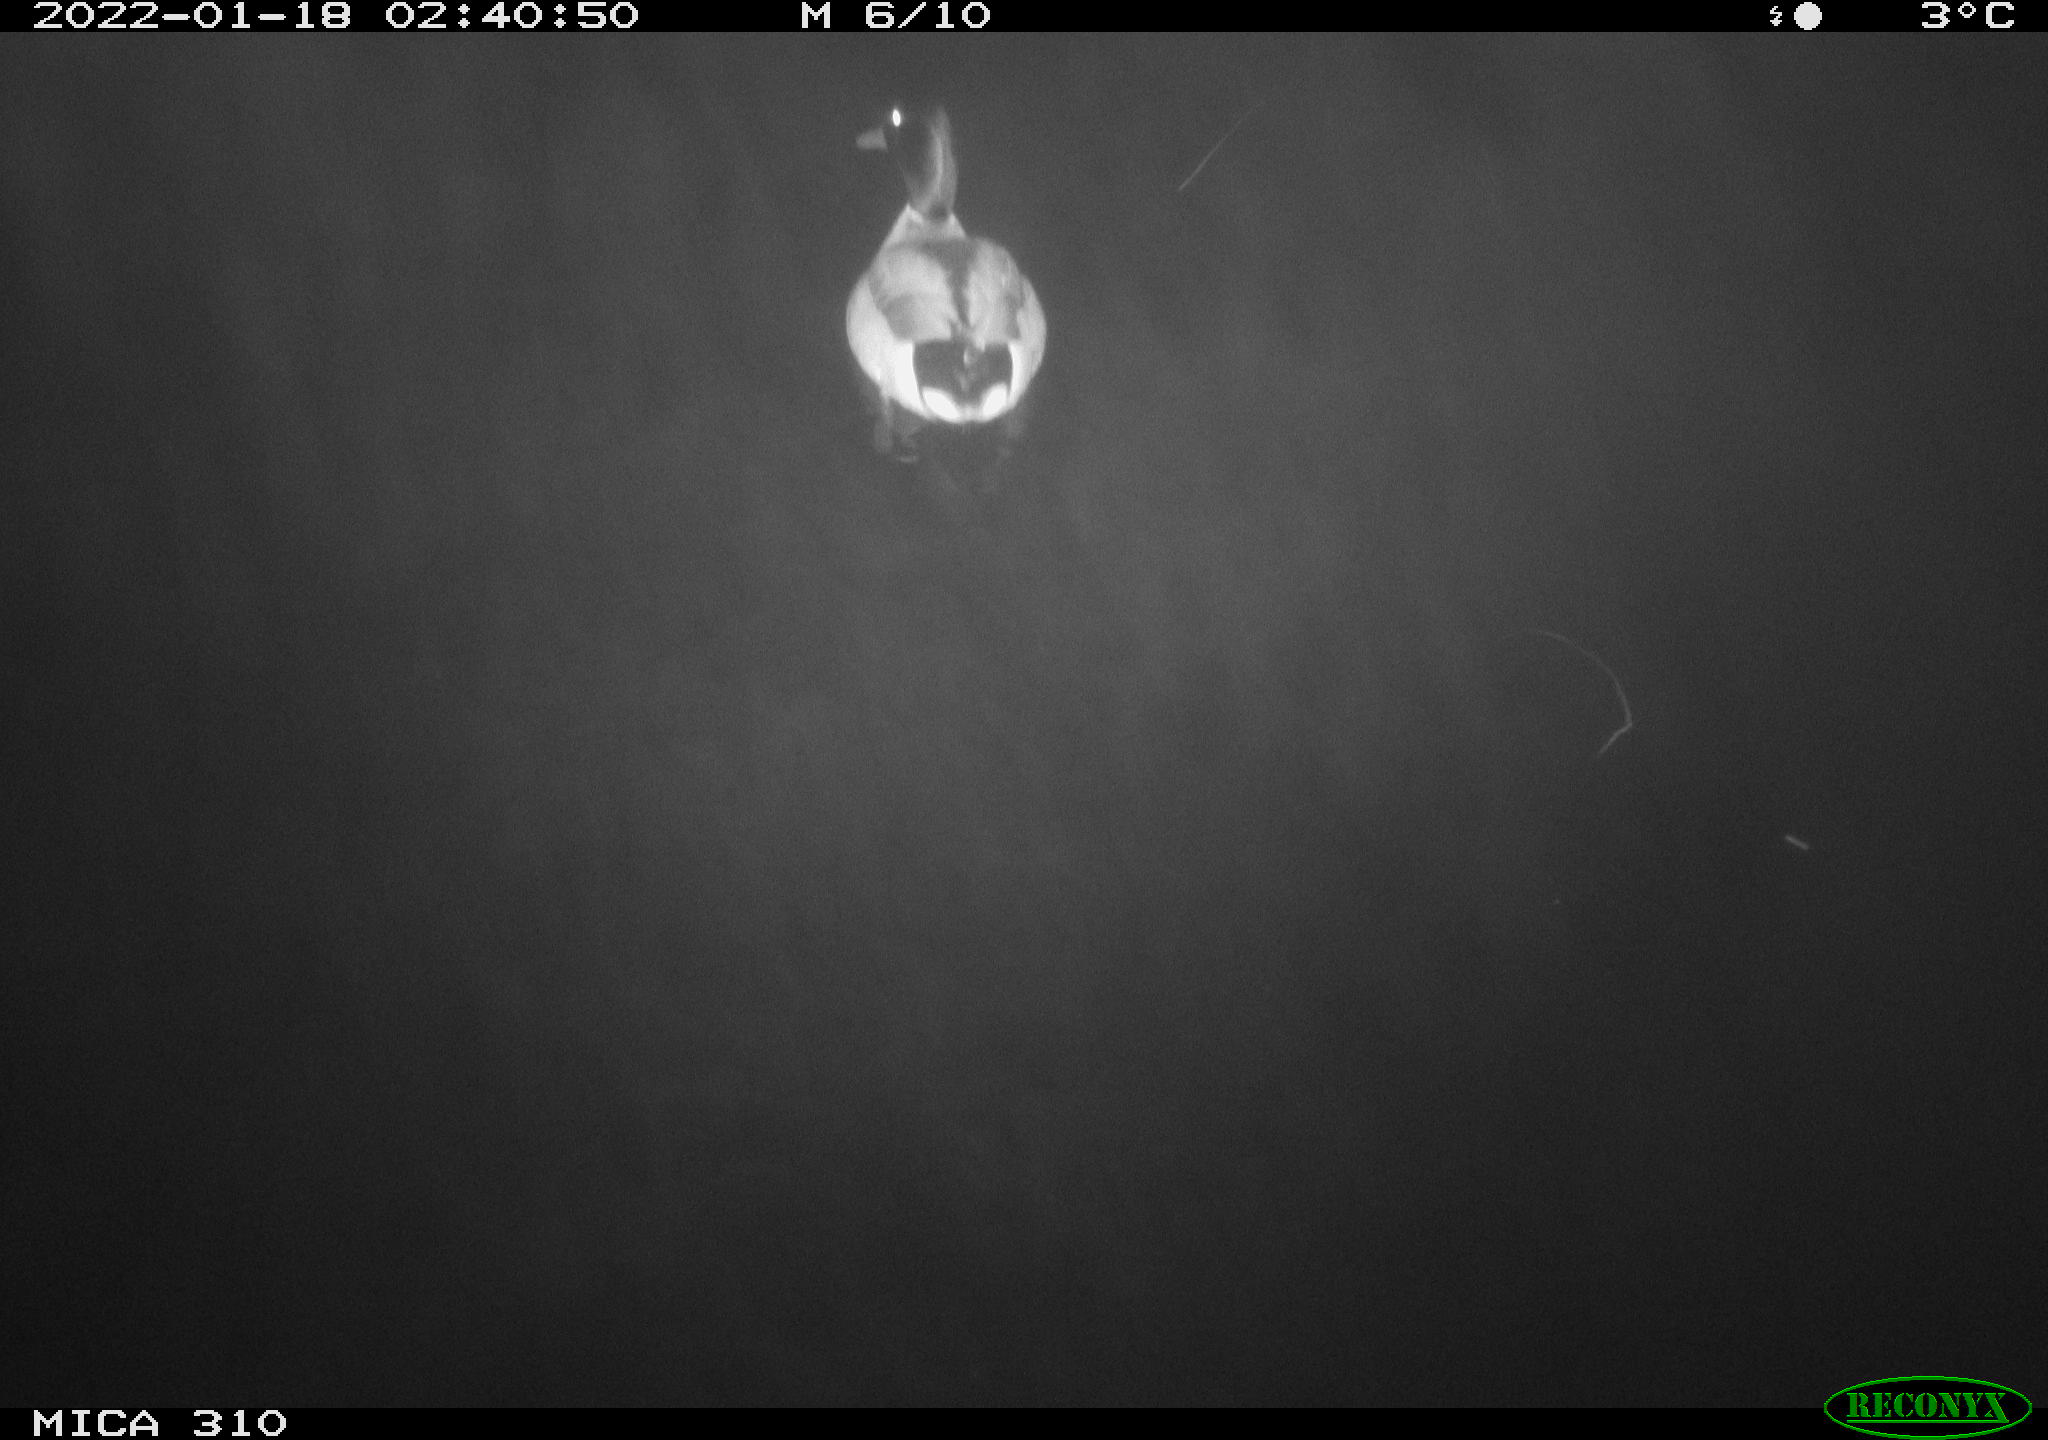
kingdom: Animalia
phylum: Chordata
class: Aves
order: Anseriformes
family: Anatidae
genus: Anas
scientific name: Anas
